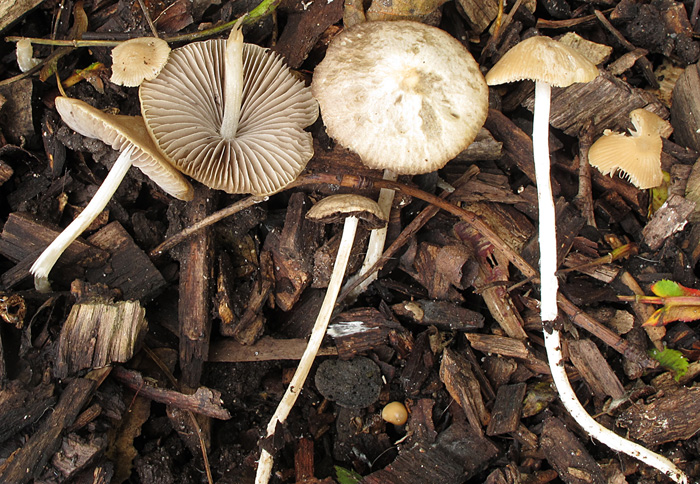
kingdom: Fungi
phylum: Basidiomycota
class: Agaricomycetes
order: Agaricales
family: Psathyrellaceae
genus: Britzelmayria
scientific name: Britzelmayria supernula
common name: stinkende mørkhat
